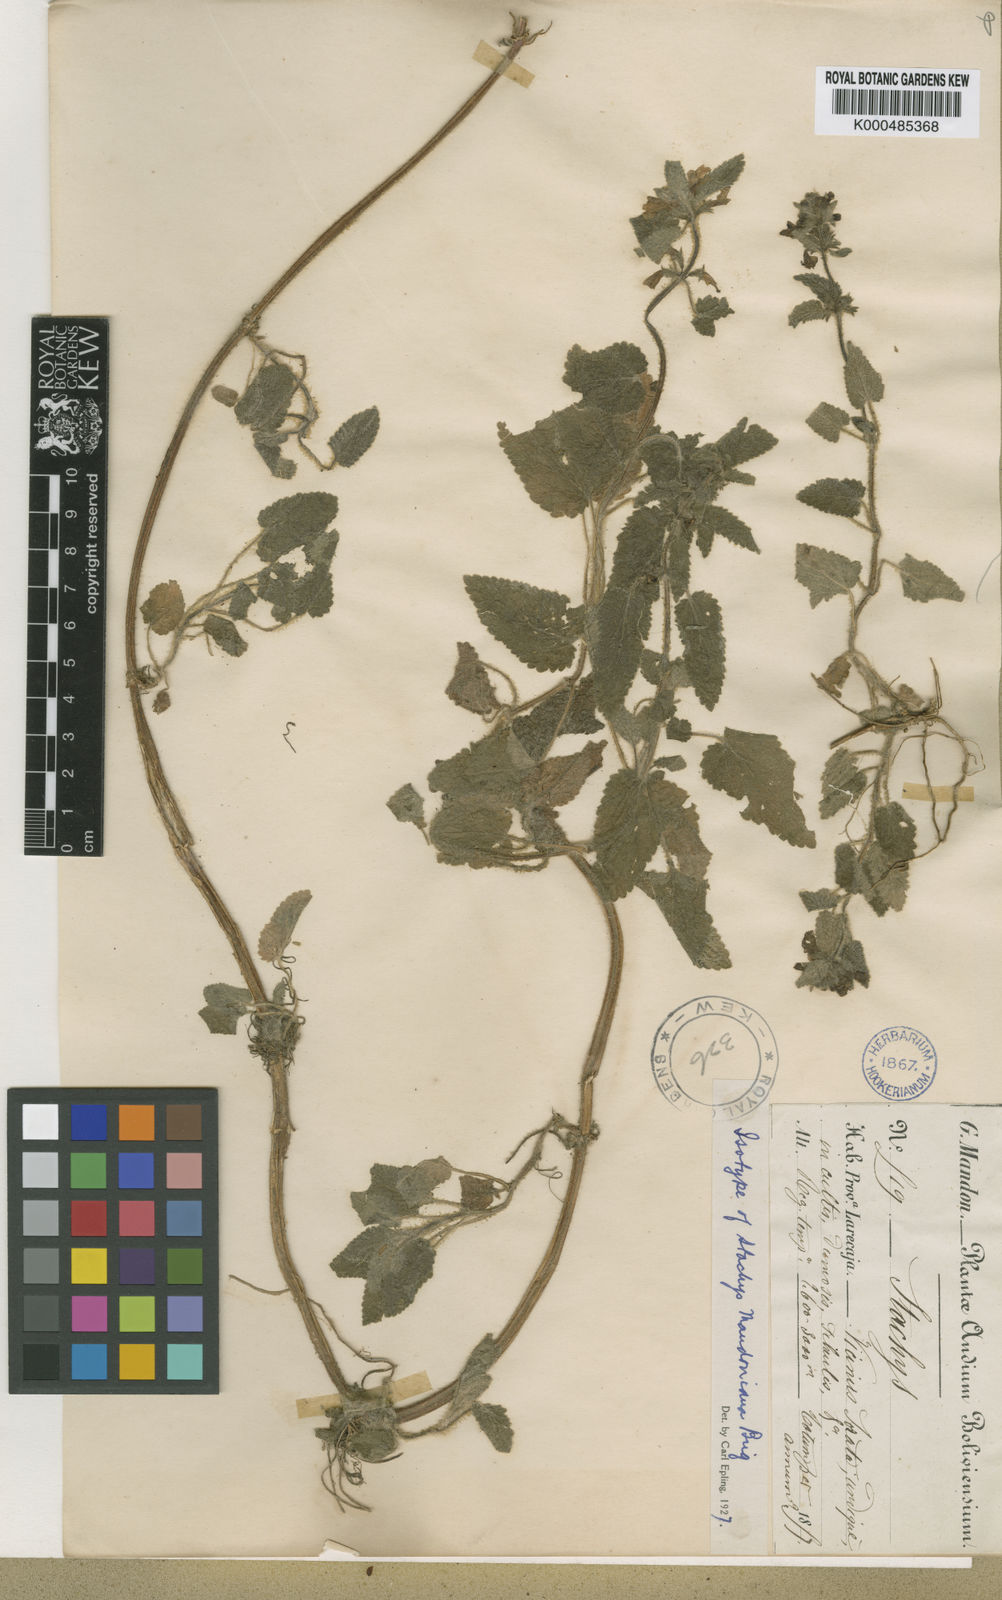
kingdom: Plantae
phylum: Tracheophyta
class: Magnoliopsida
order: Lamiales
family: Lamiaceae
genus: Stachys
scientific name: Stachys mandoniana
